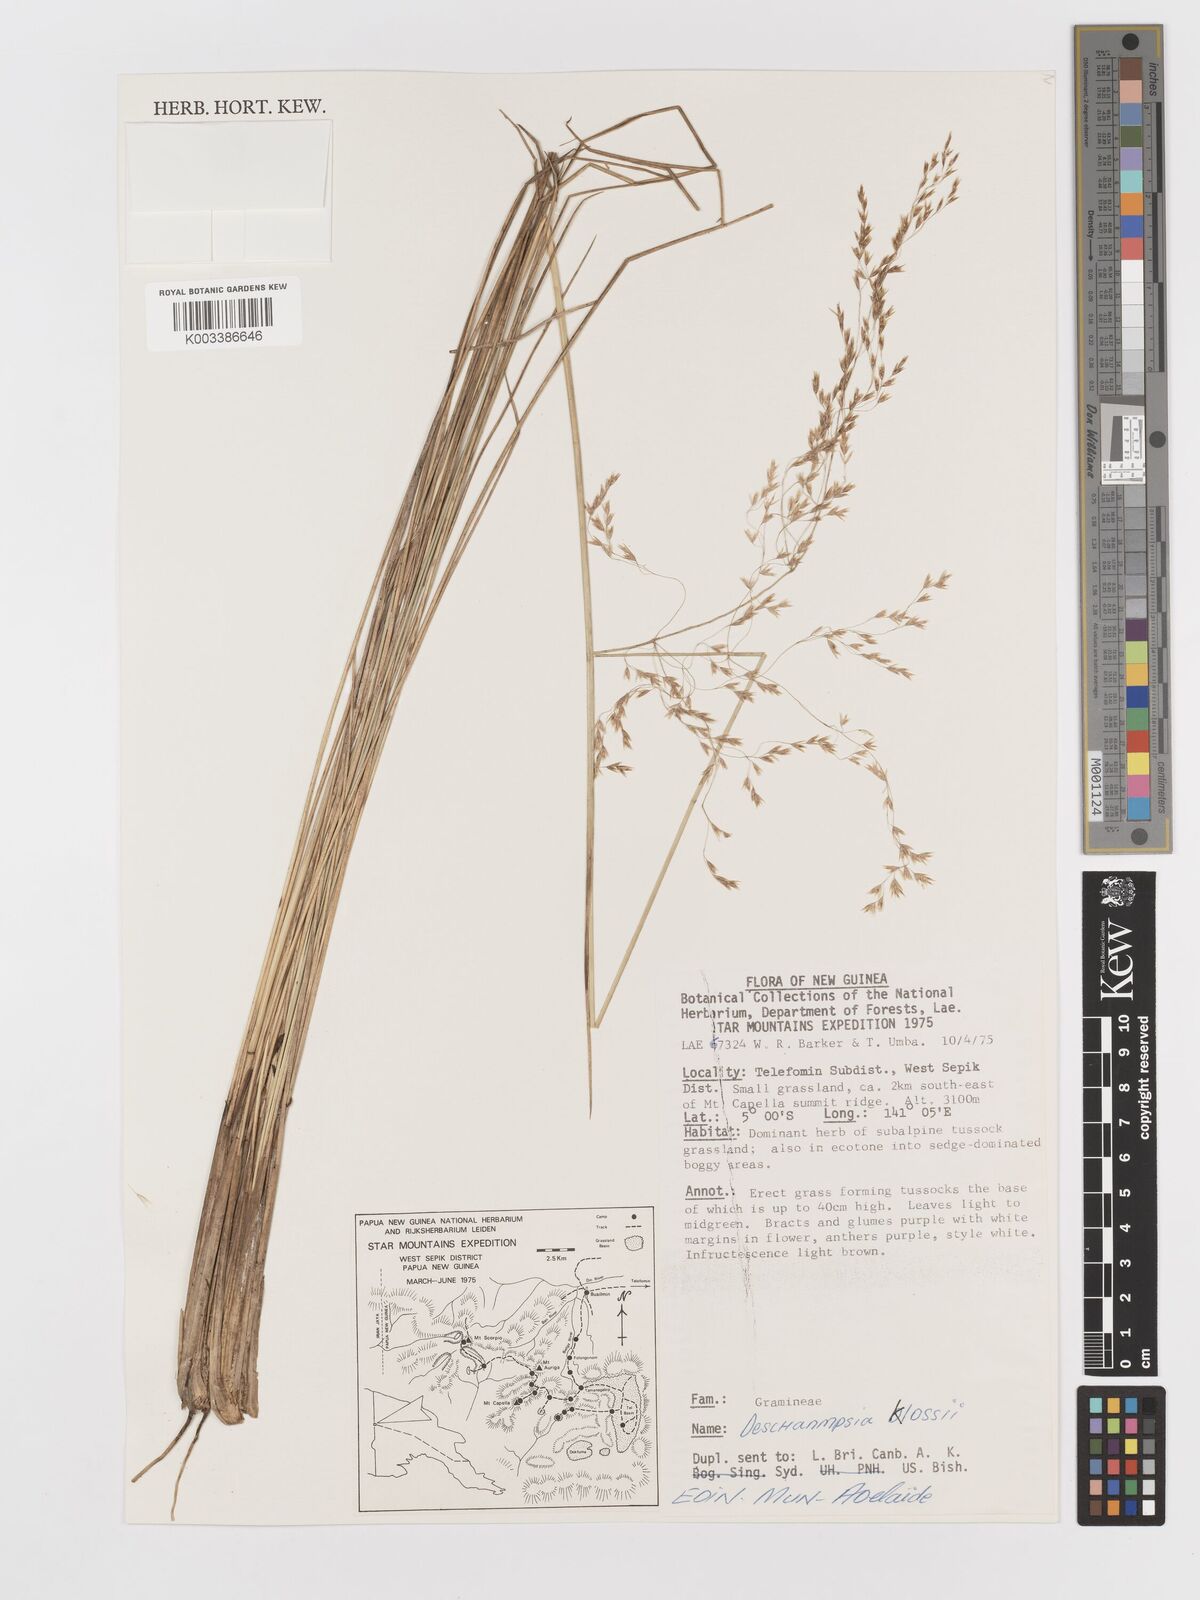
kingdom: Plantae
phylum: Tracheophyta
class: Liliopsida
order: Poales
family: Poaceae
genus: Deschampsia
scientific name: Deschampsia klossii
